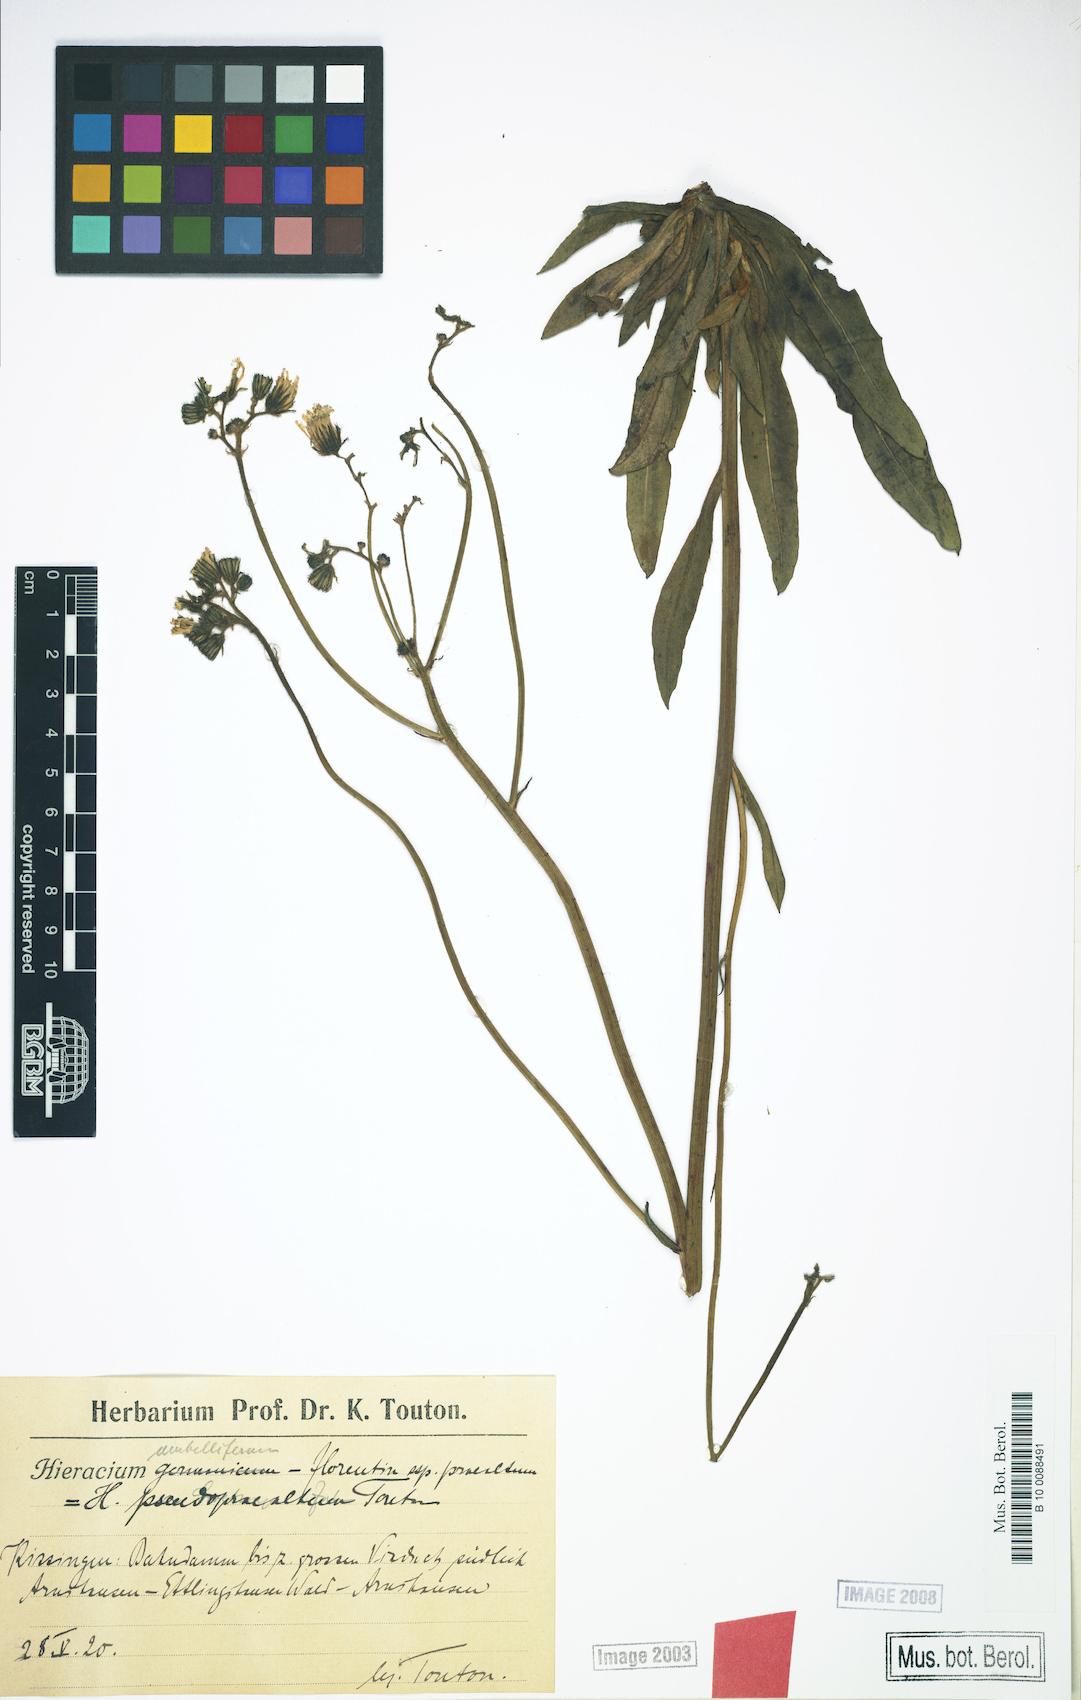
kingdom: Plantae
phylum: Tracheophyta
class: Magnoliopsida
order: Asterales
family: Asteraceae
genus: Pilosella
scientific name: Pilosella densiflora
